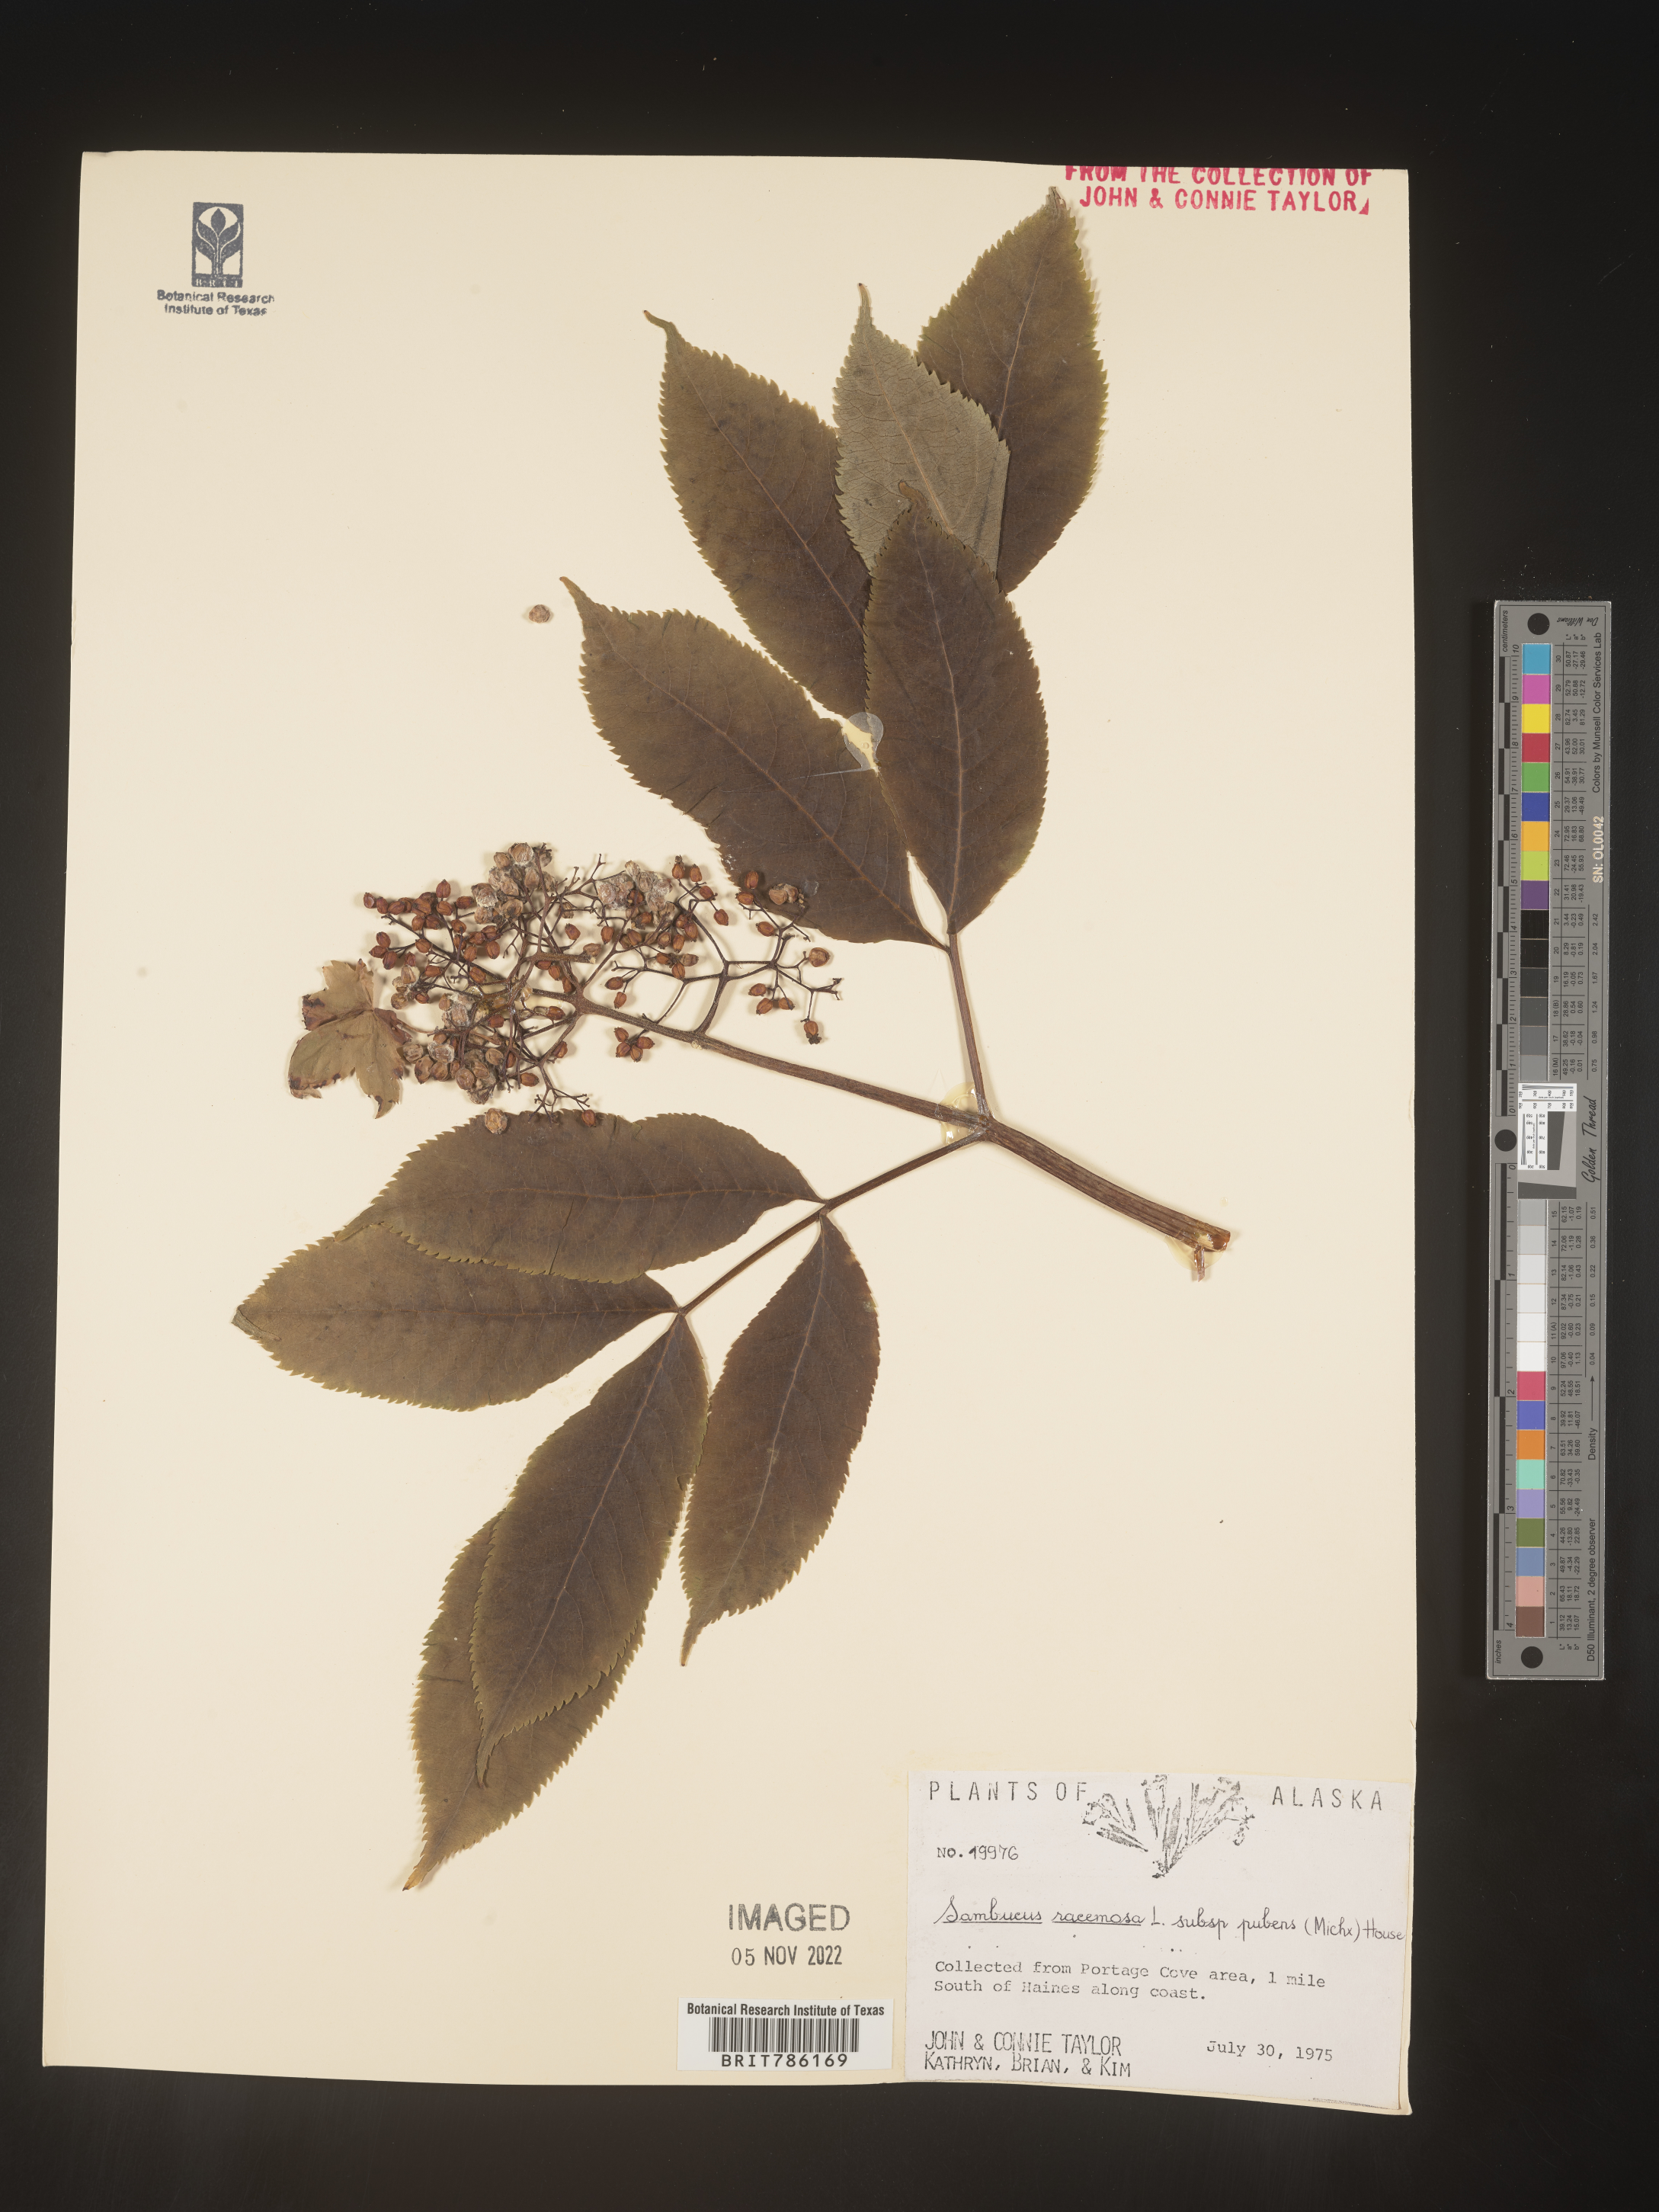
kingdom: Plantae
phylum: Tracheophyta
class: Magnoliopsida
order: Dipsacales
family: Viburnaceae
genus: Sambucus
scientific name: Sambucus
